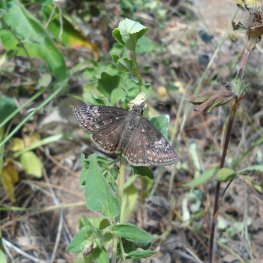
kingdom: Animalia
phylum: Arthropoda
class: Insecta
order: Lepidoptera
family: Hesperiidae
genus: Gesta
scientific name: Gesta
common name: Columbine Duskywing
